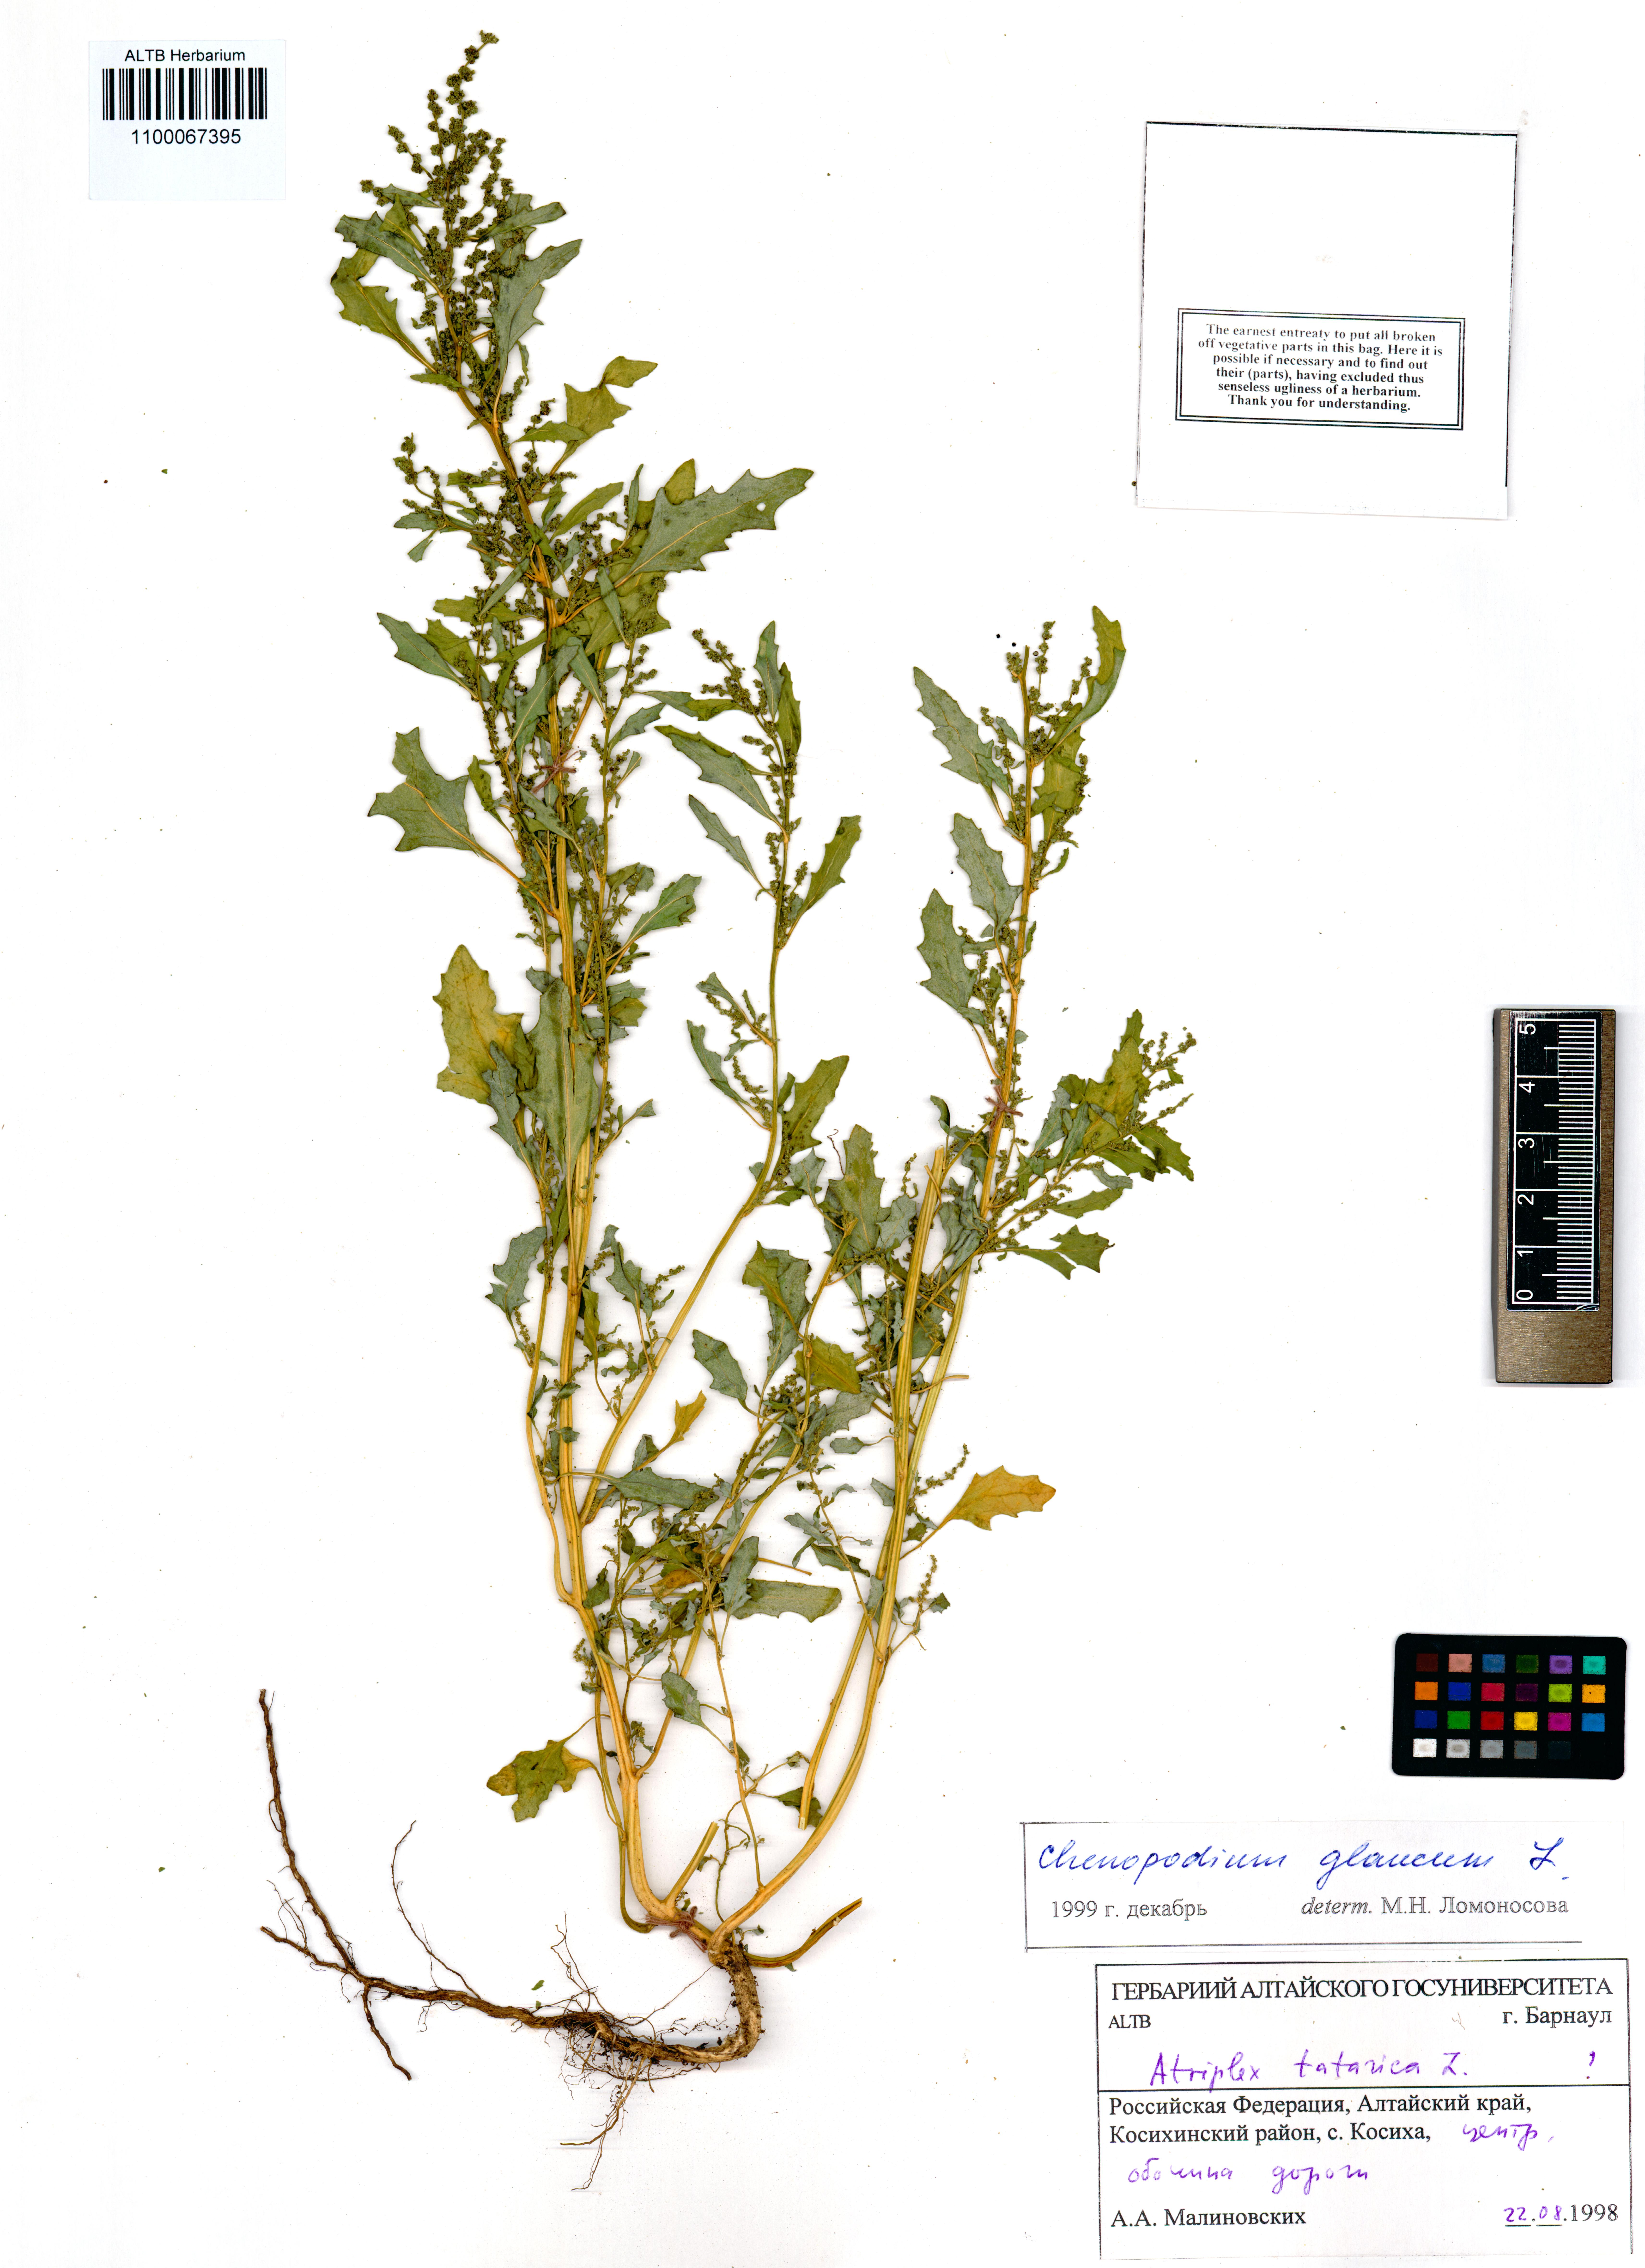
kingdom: Plantae
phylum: Tracheophyta
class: Magnoliopsida
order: Caryophyllales
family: Amaranthaceae
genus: Oxybasis
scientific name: Oxybasis glauca
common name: Glaucous goosefoot
